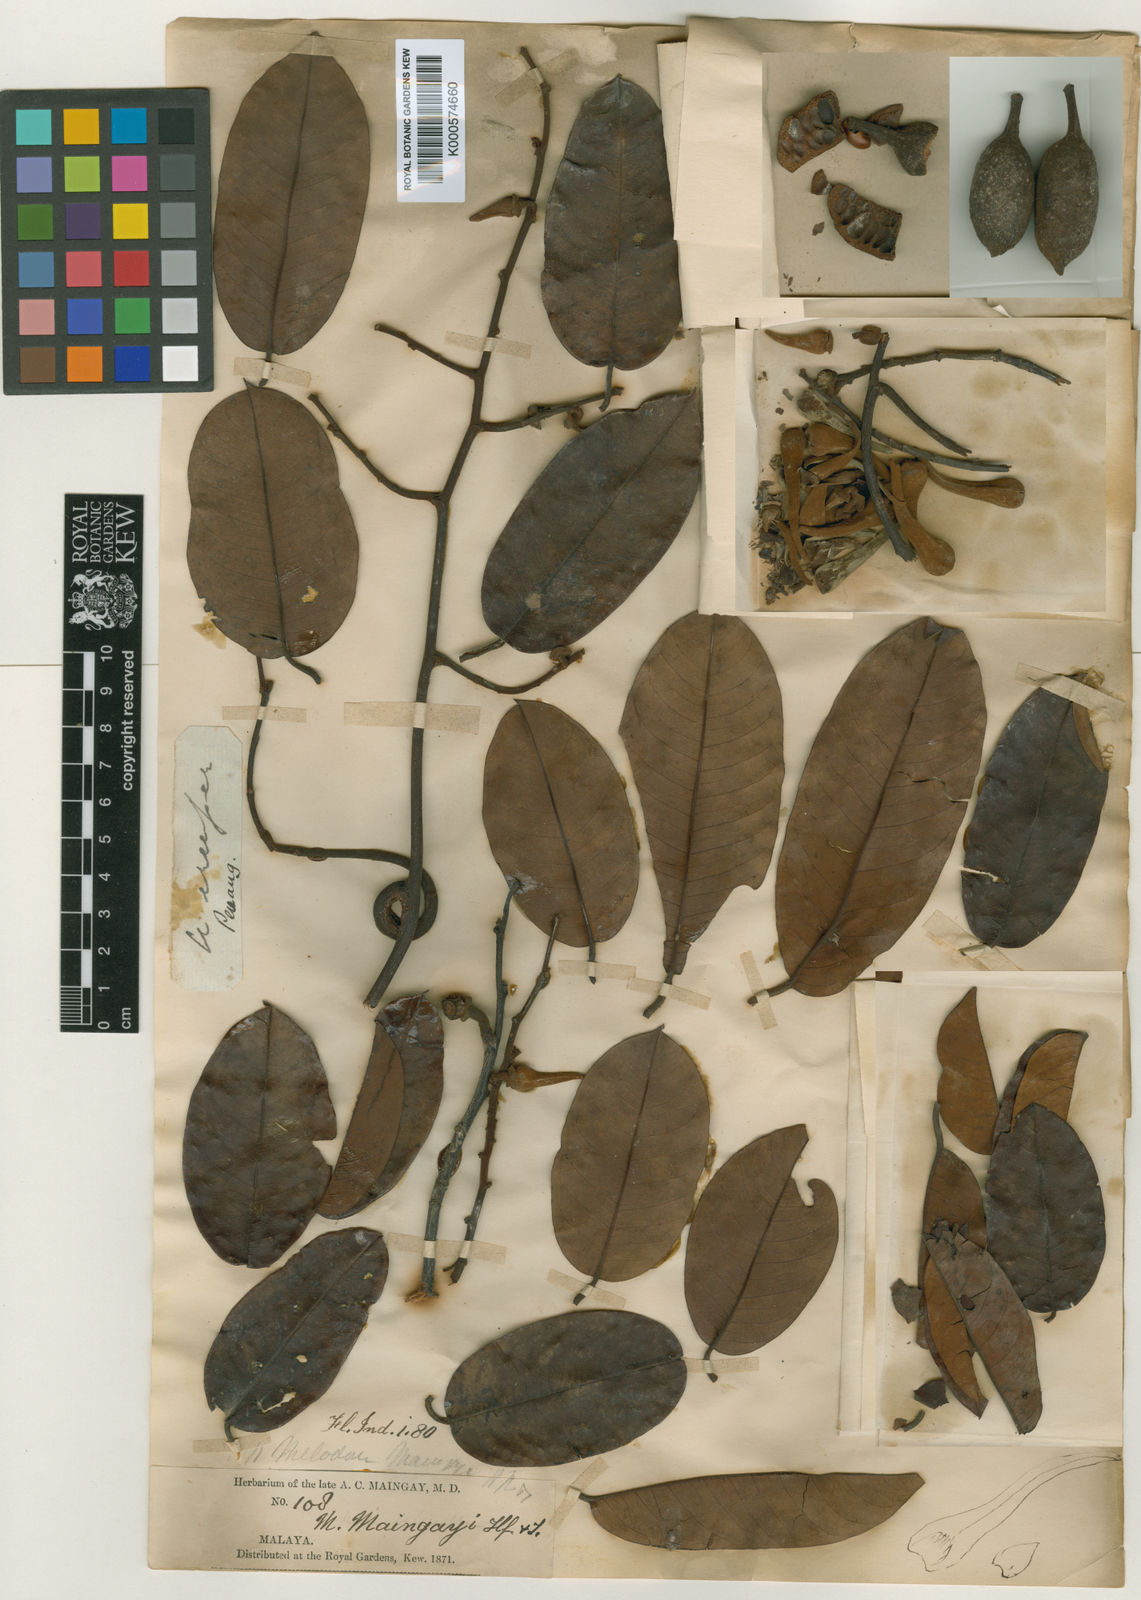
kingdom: Plantae
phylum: Tracheophyta
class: Magnoliopsida
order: Magnoliales
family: Annonaceae
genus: Pyramidanthe
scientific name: Pyramidanthe
